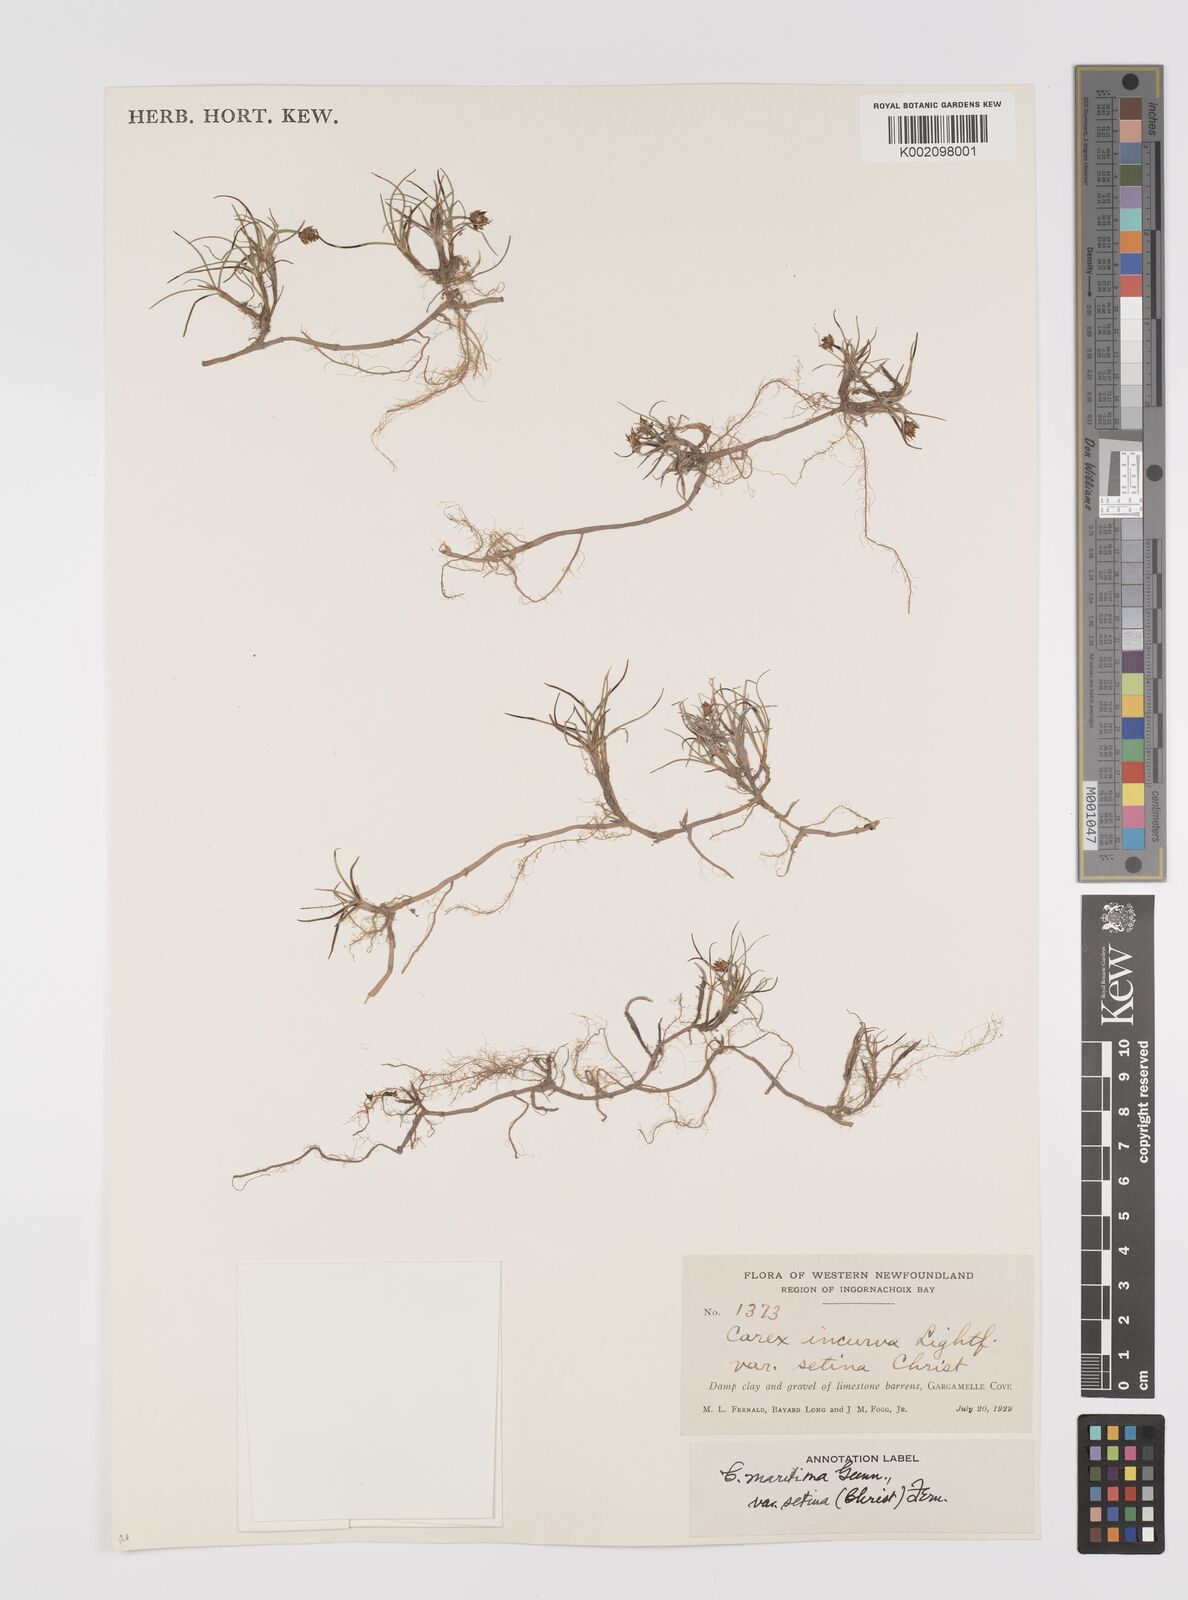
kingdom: Plantae
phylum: Tracheophyta
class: Liliopsida
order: Poales
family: Cyperaceae
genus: Carex
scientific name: Carex maritima
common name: Curved sedge
